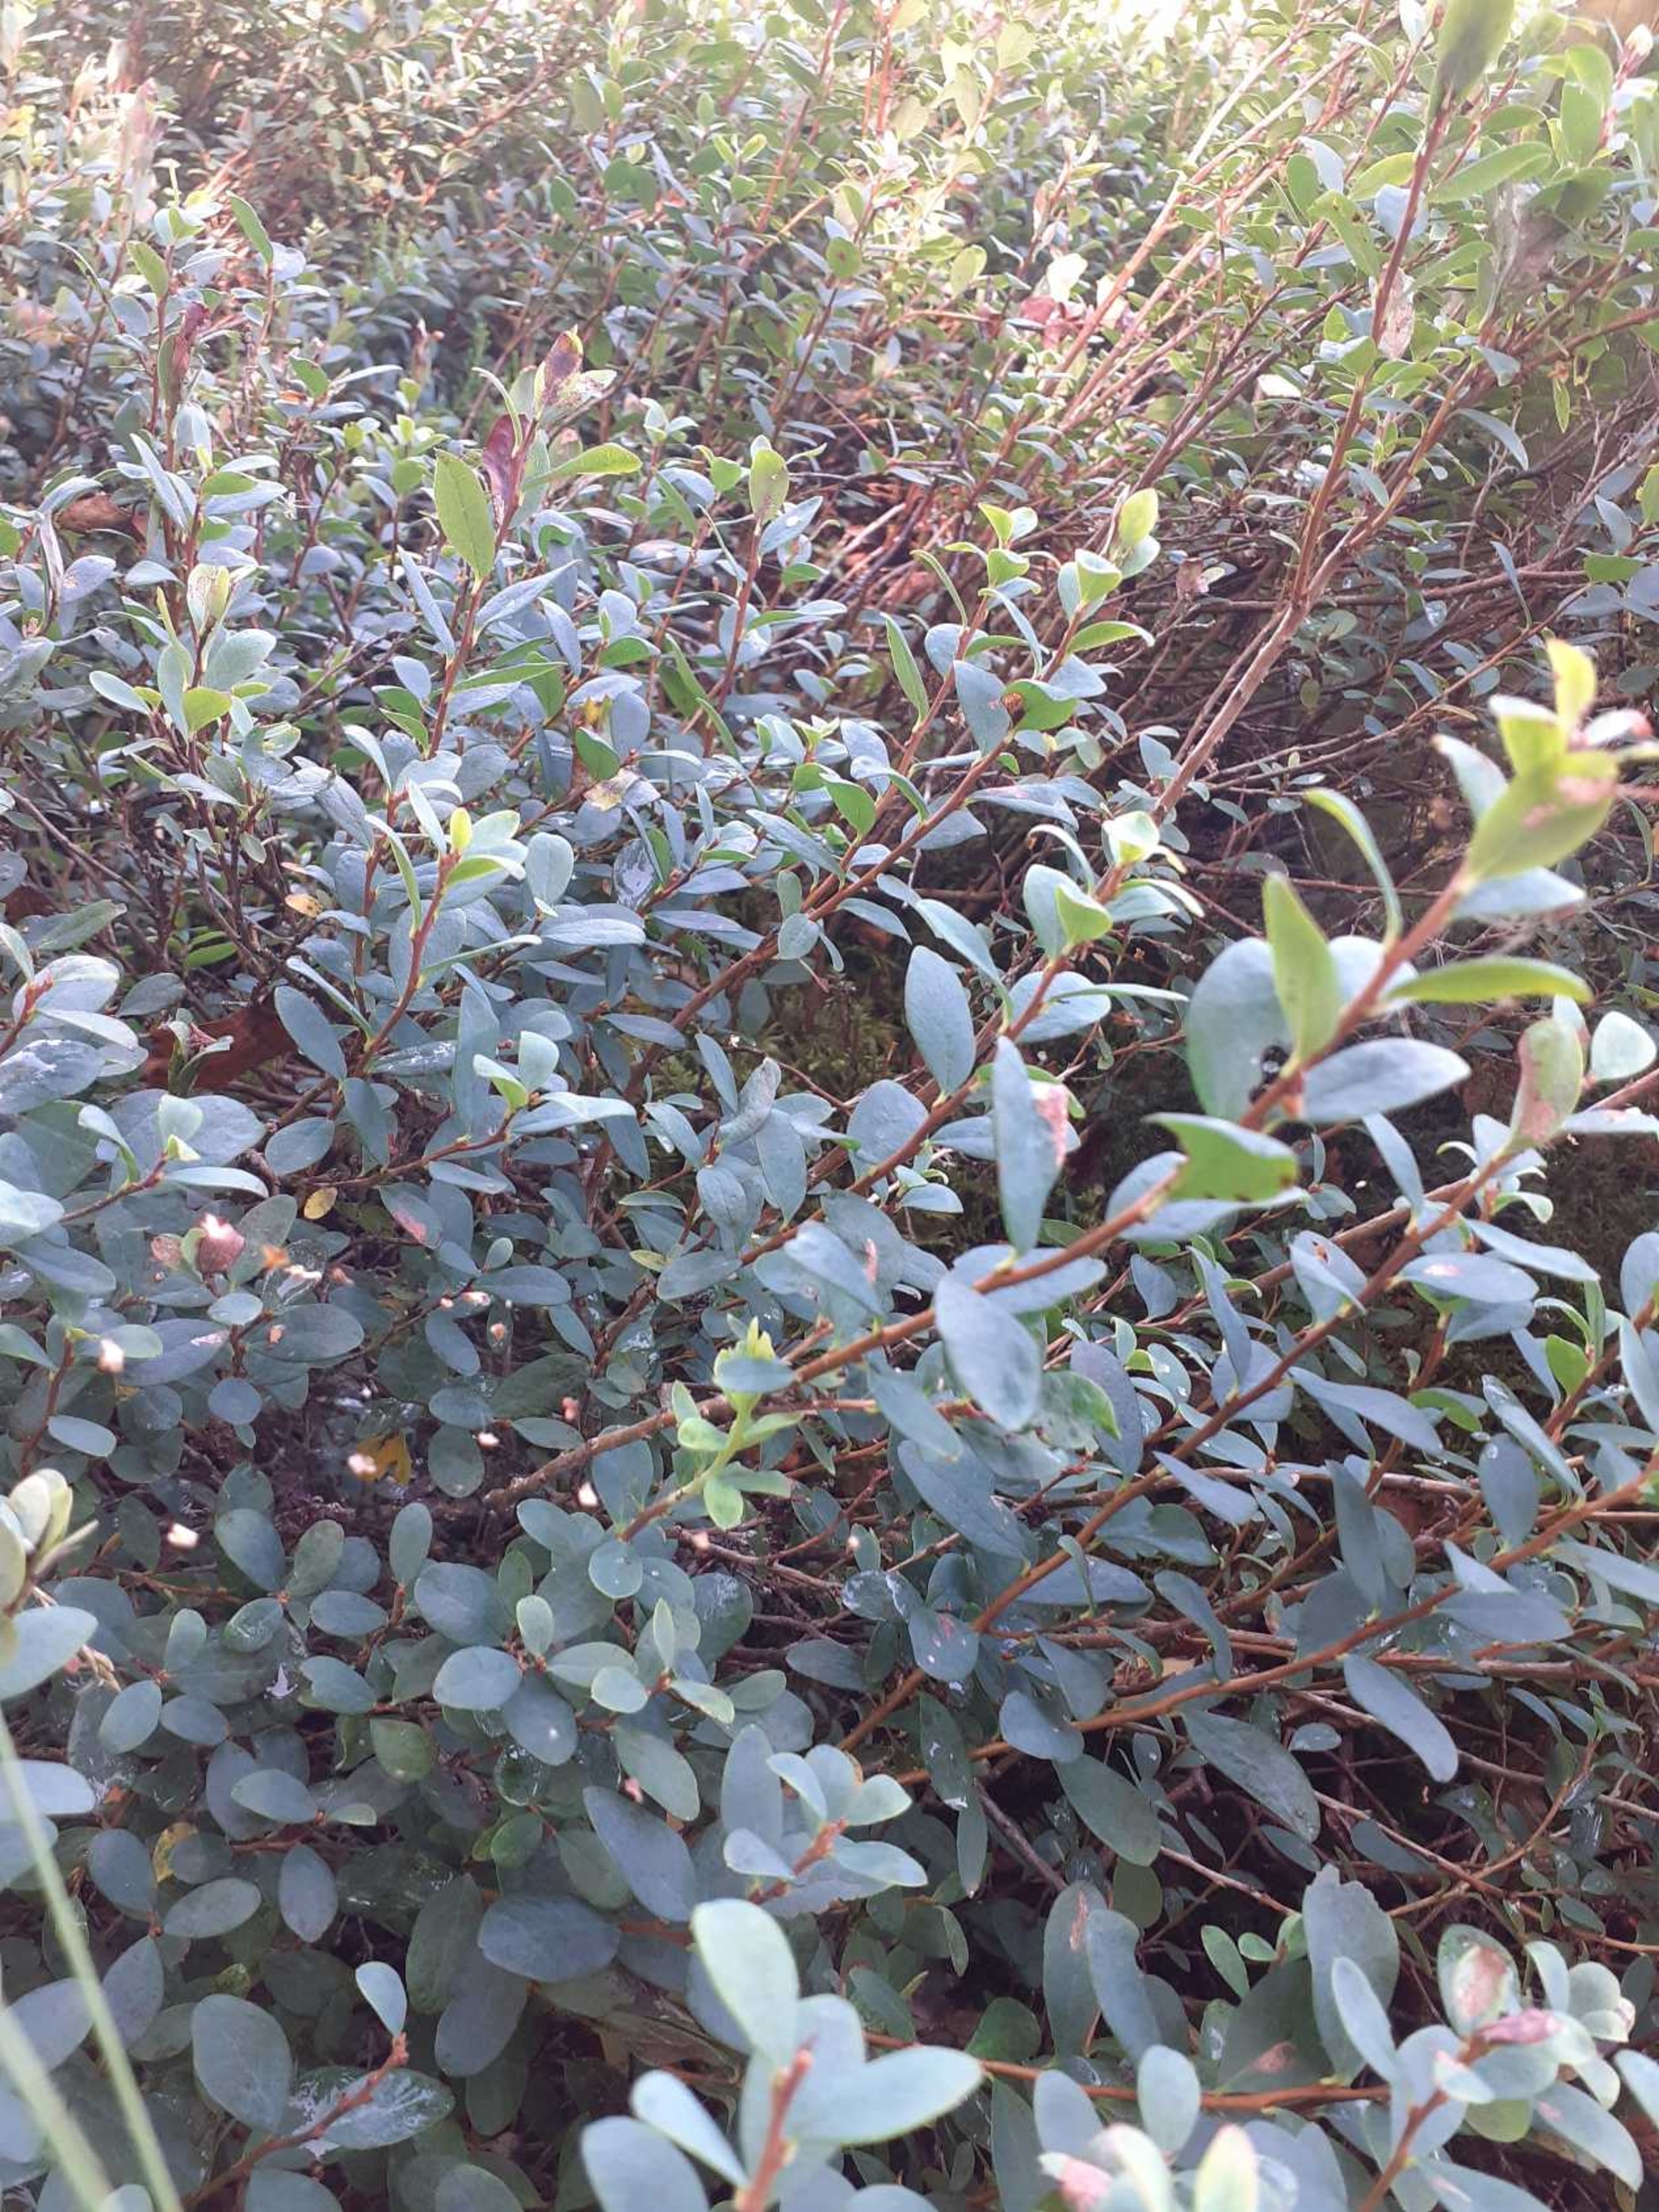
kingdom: Plantae
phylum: Tracheophyta
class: Magnoliopsida
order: Ericales
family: Ericaceae
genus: Vaccinium
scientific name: Vaccinium uliginosum
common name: Mose-bølle
